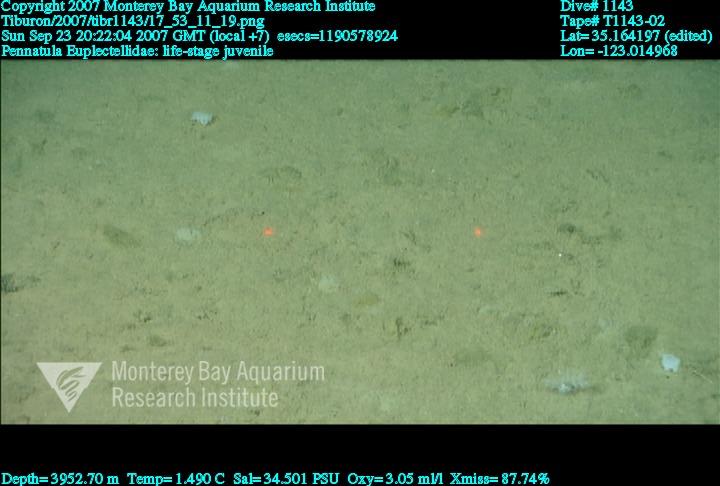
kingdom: Animalia
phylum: Porifera
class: Hexactinellida
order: Lyssacinosida
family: Euplectellidae
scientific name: Euplectellidae
